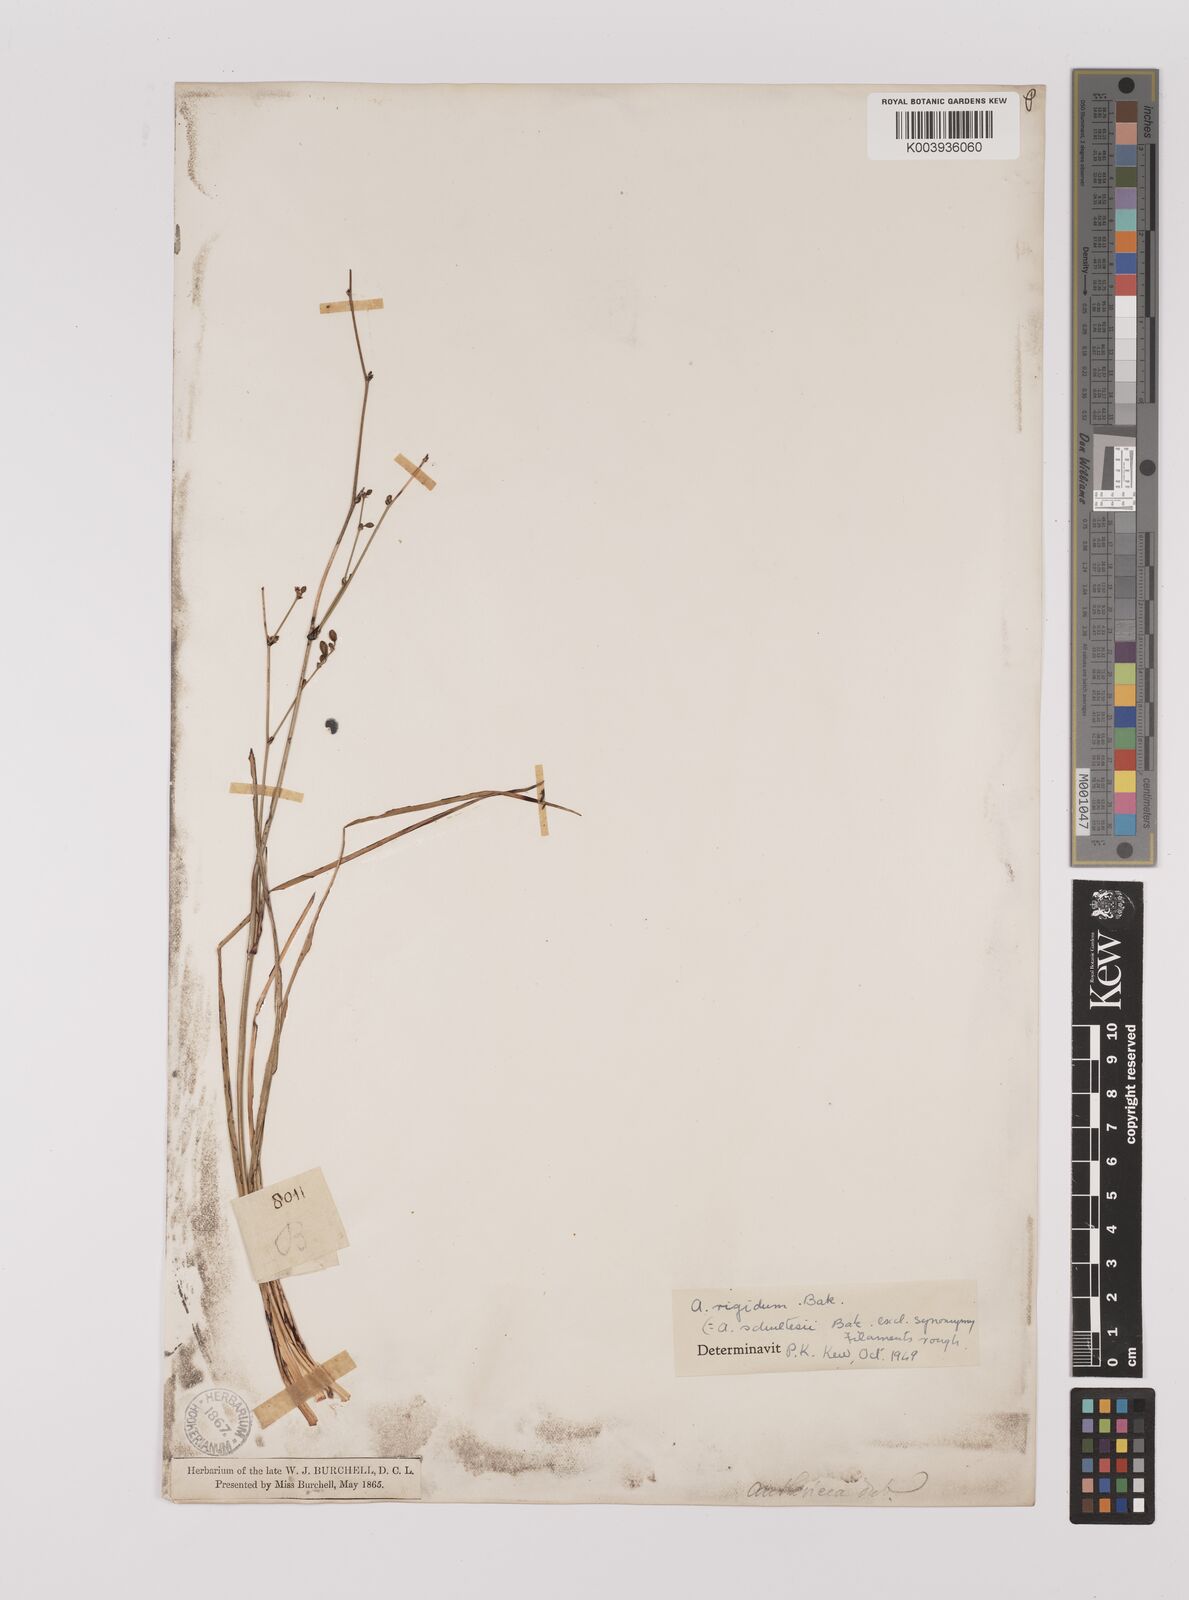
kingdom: Plantae
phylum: Tracheophyta
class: Liliopsida
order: Asparagales
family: Asparagaceae
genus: Chlorophytum
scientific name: Chlorophytum rigidum
